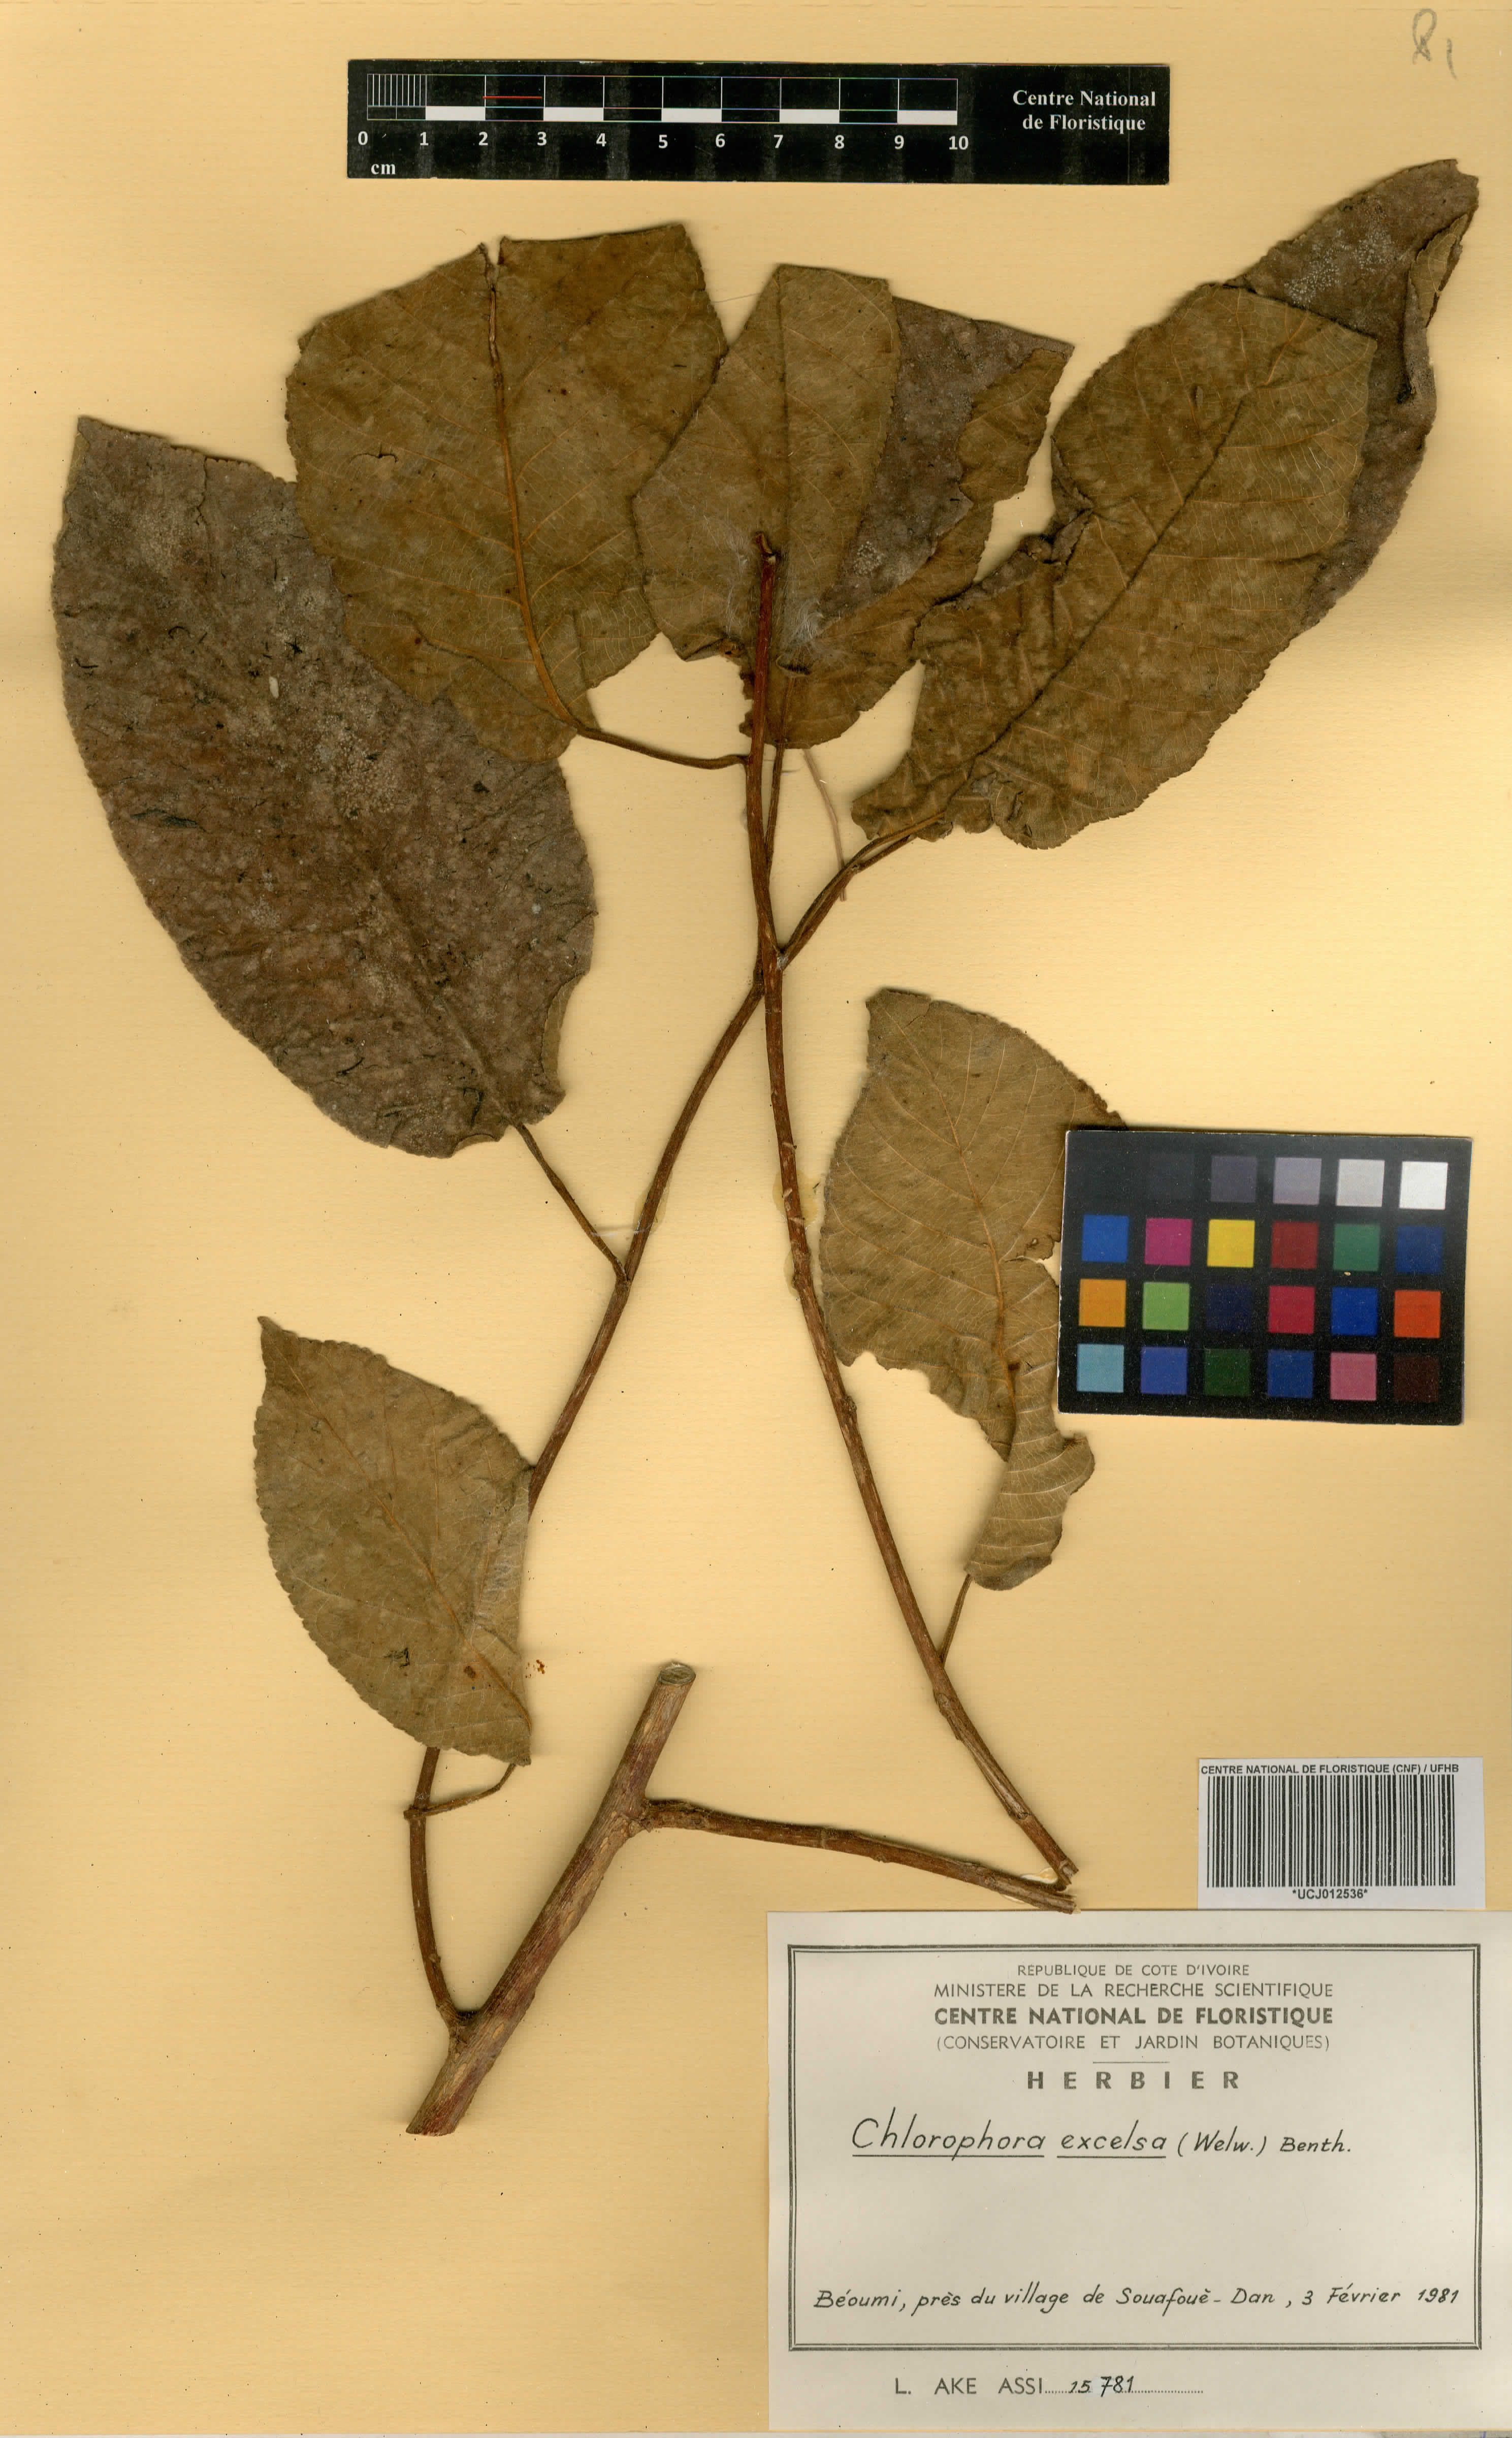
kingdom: Plantae
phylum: Tracheophyta
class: Magnoliopsida
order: Rosales
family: Moraceae
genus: Milicia
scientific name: Milicia excelsa
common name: African teak
